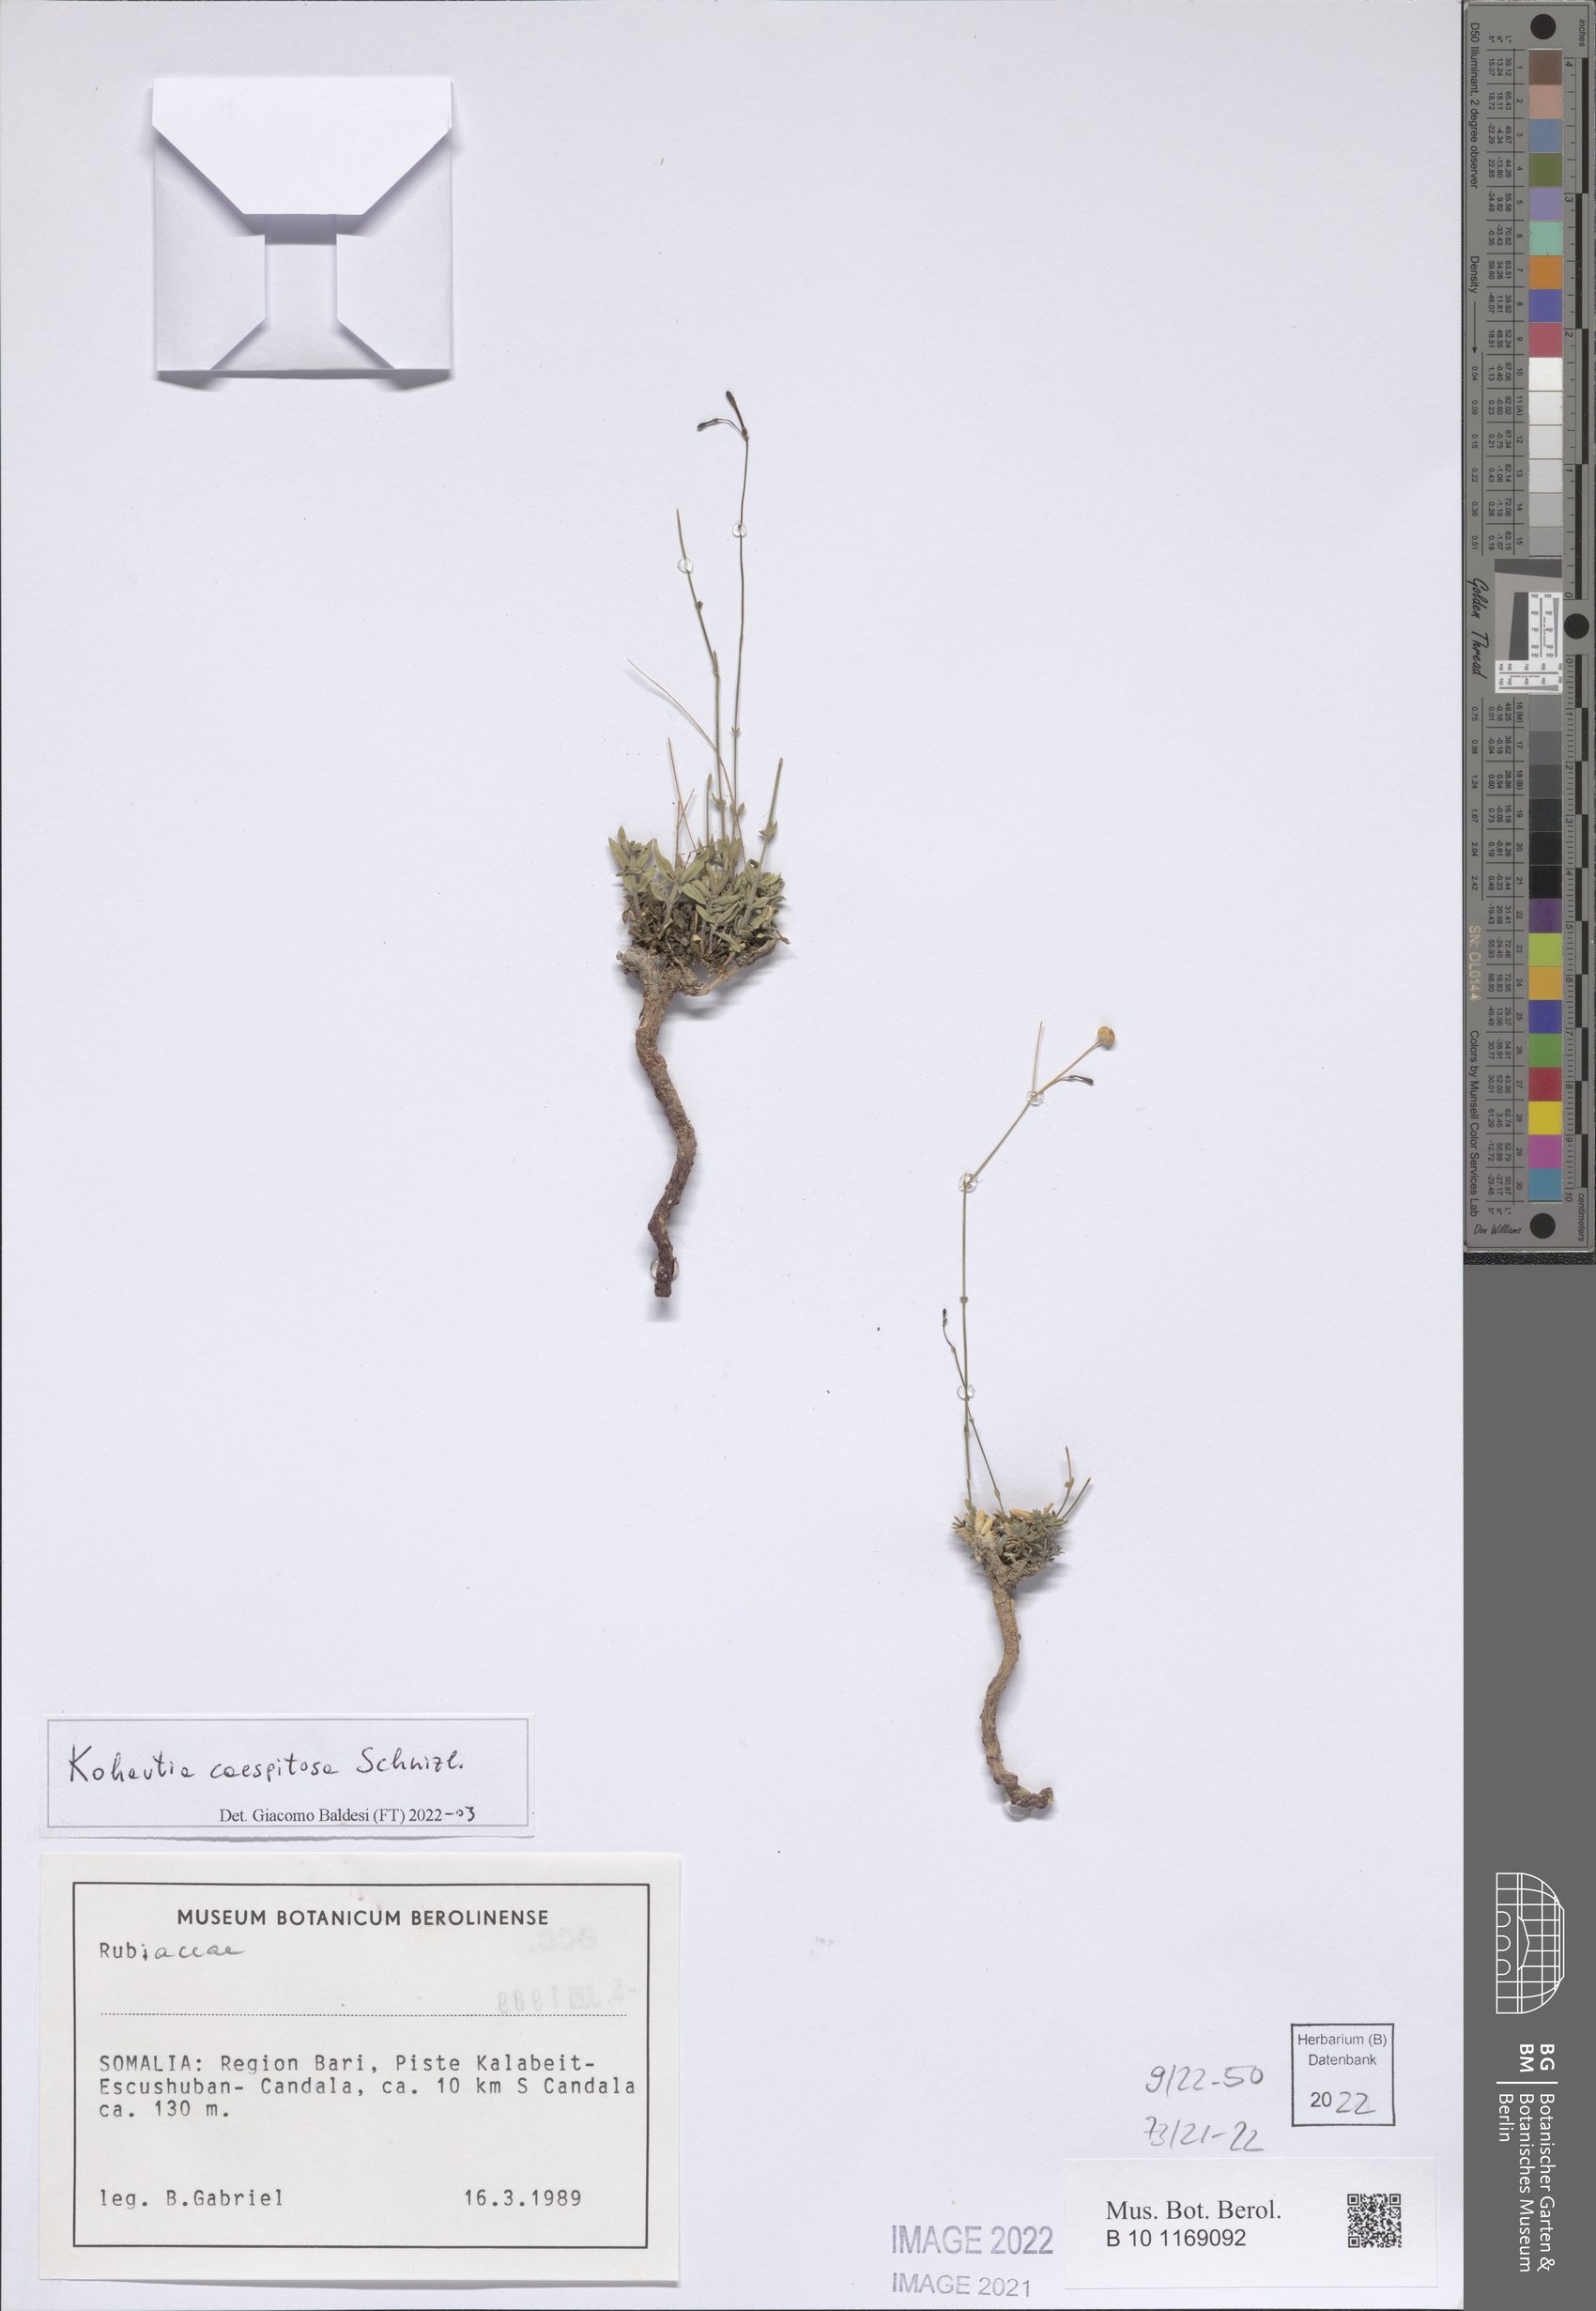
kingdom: Plantae
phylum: Tracheophyta
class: Magnoliopsida
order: Gentianales
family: Rubiaceae
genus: Kohautia
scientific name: Kohautia caespitosa
